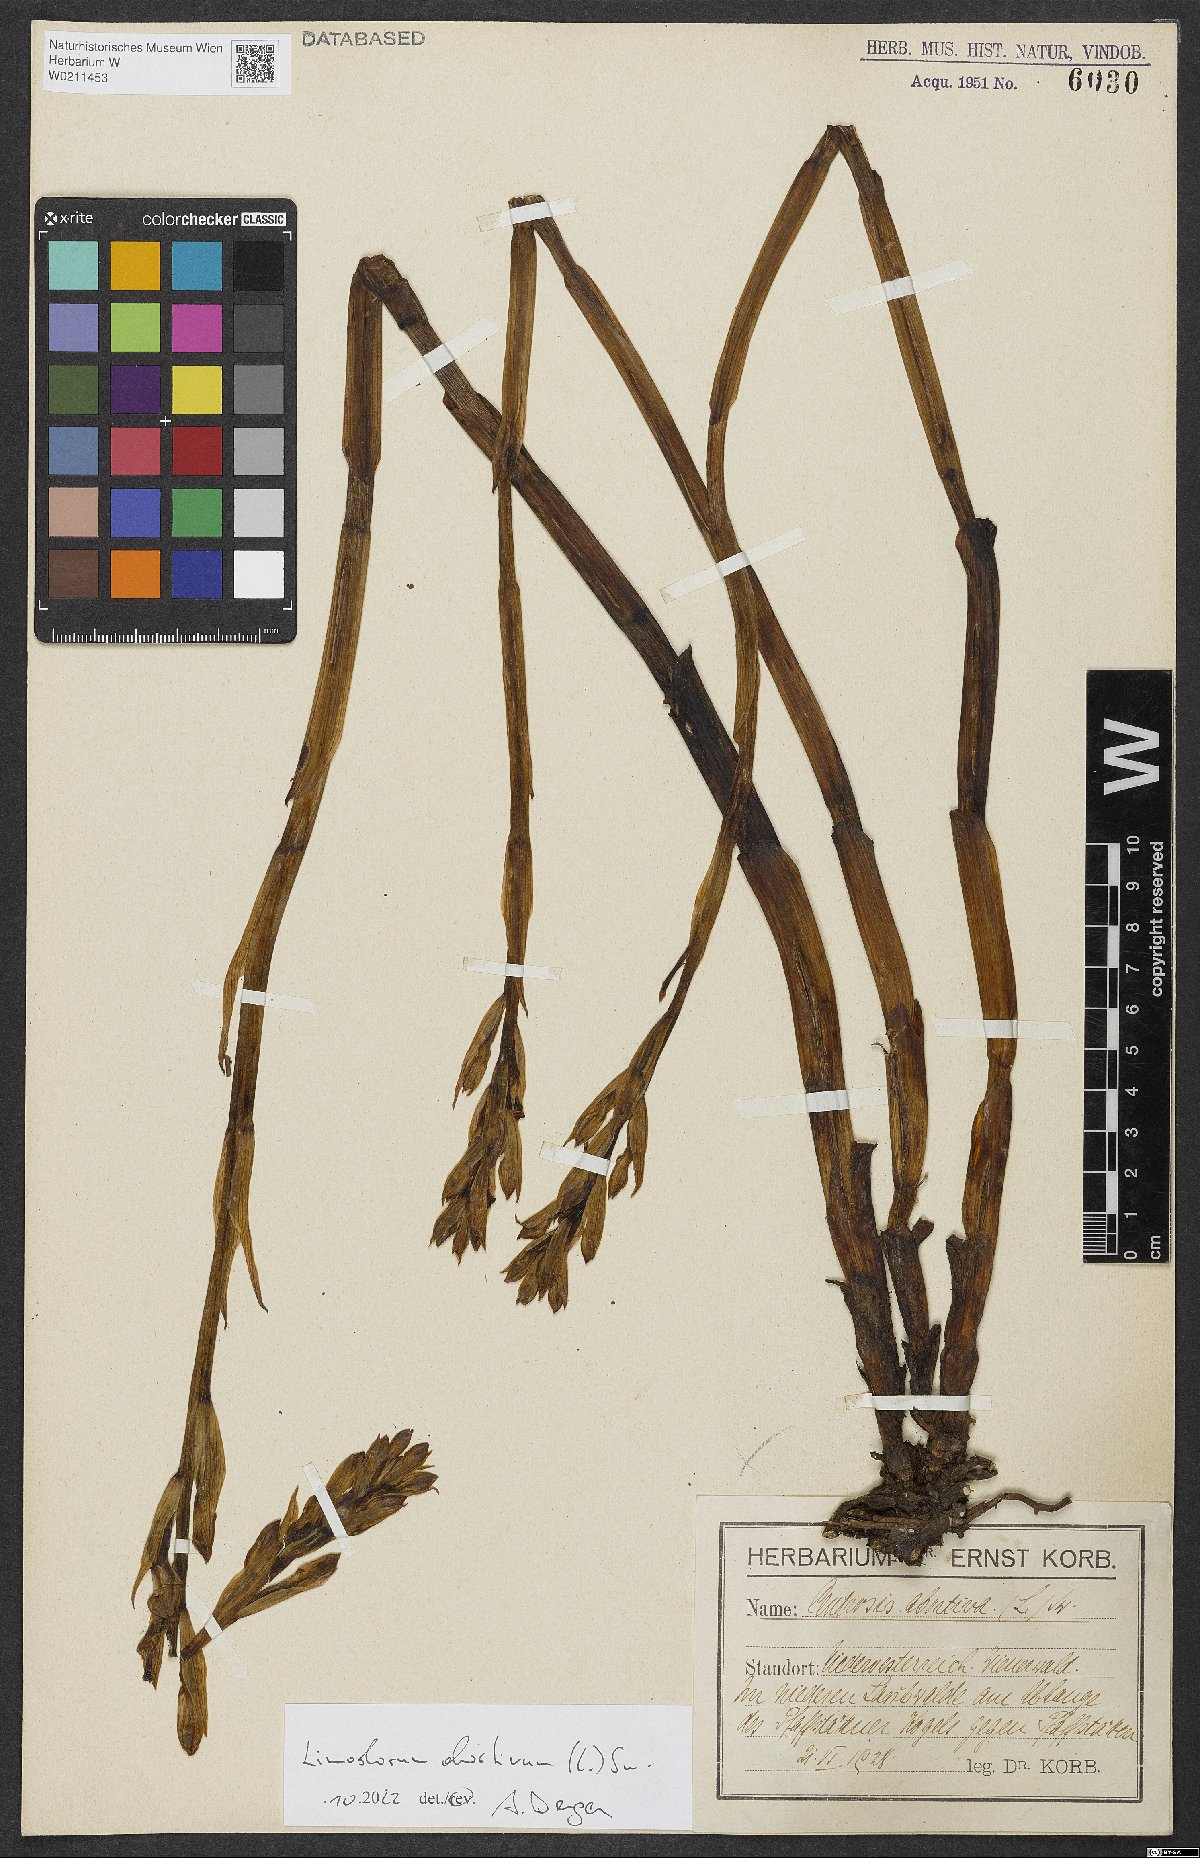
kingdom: Plantae
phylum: Tracheophyta
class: Liliopsida
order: Asparagales
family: Orchidaceae
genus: Limodorum
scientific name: Limodorum abortivum
